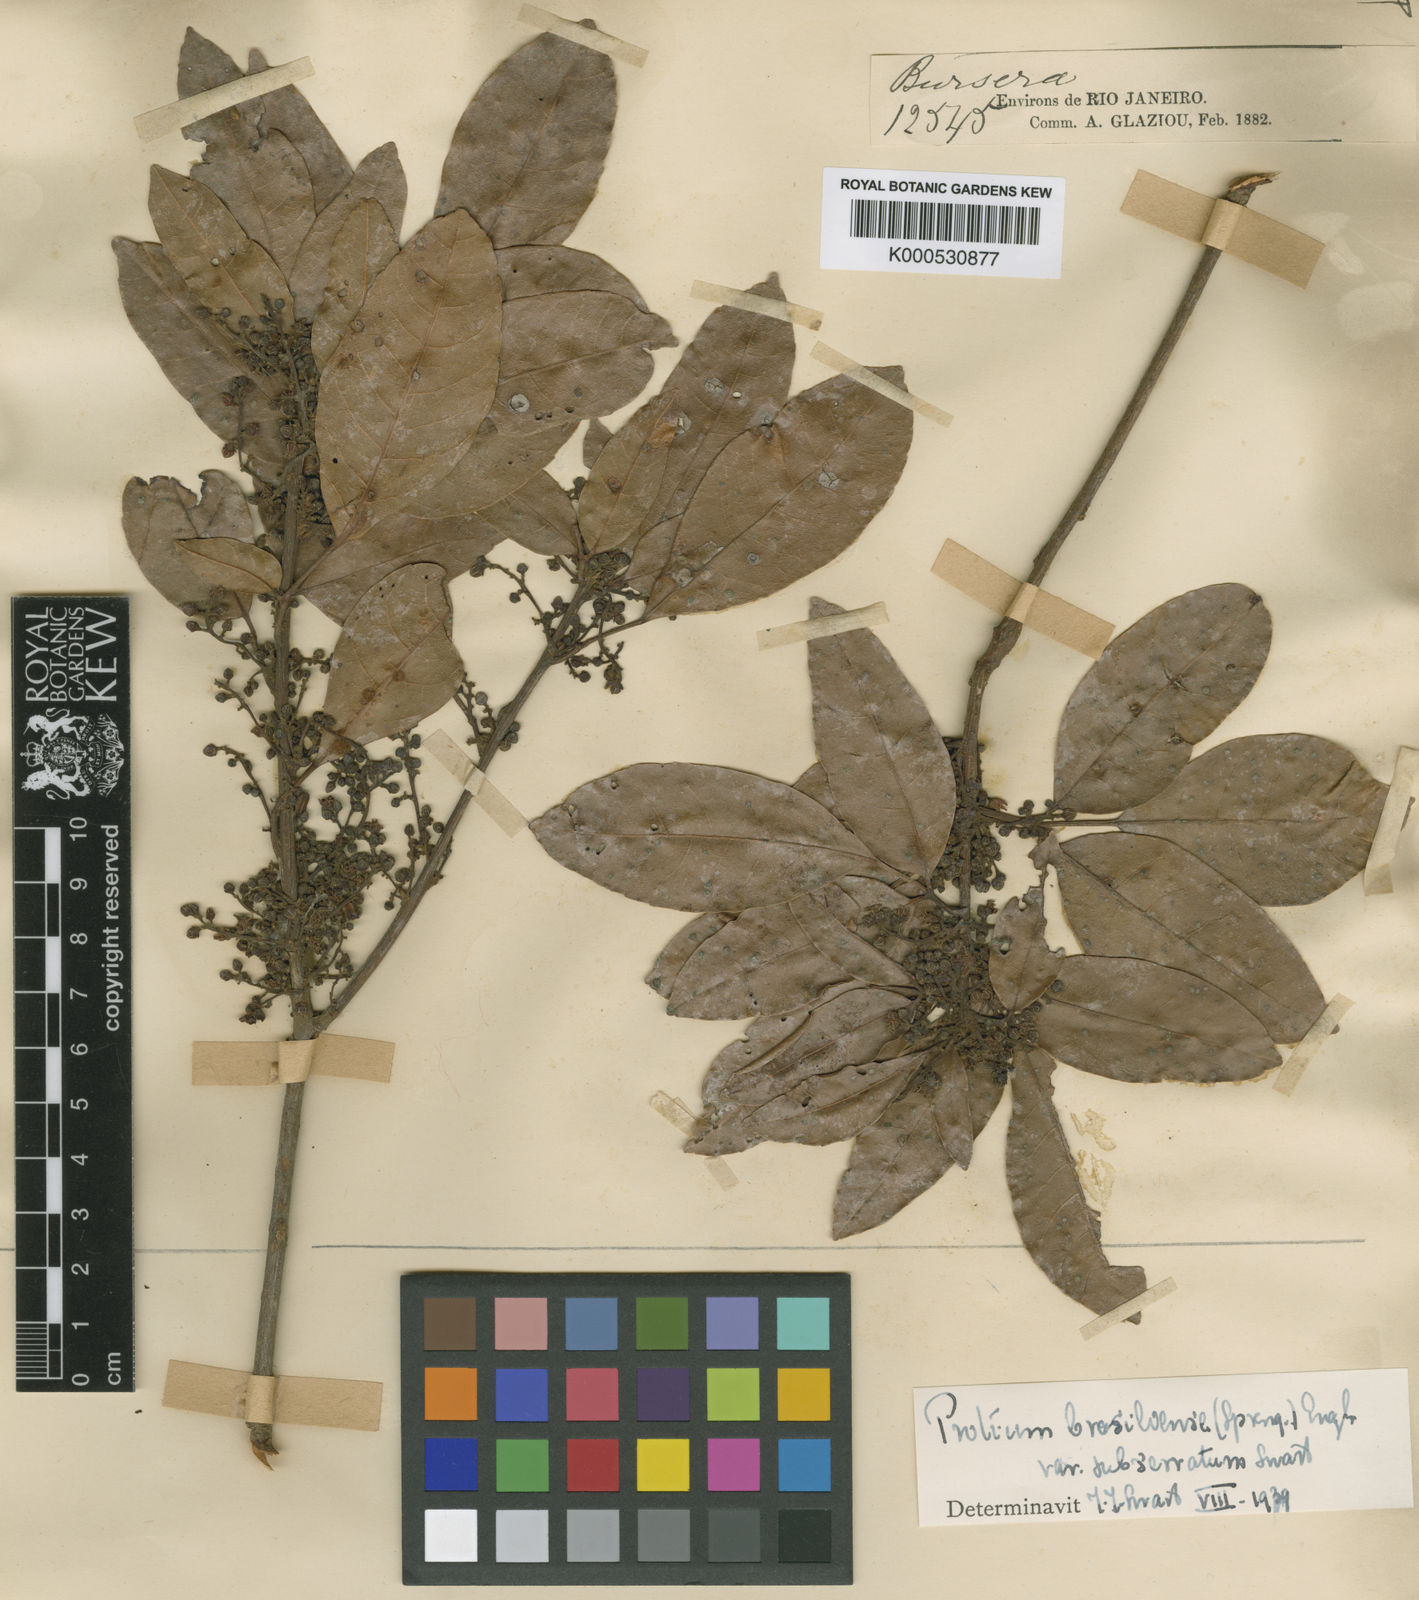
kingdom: Plantae
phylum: Tracheophyta
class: Magnoliopsida
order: Sapindales
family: Burseraceae
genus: Protium
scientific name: Protium brasiliense
